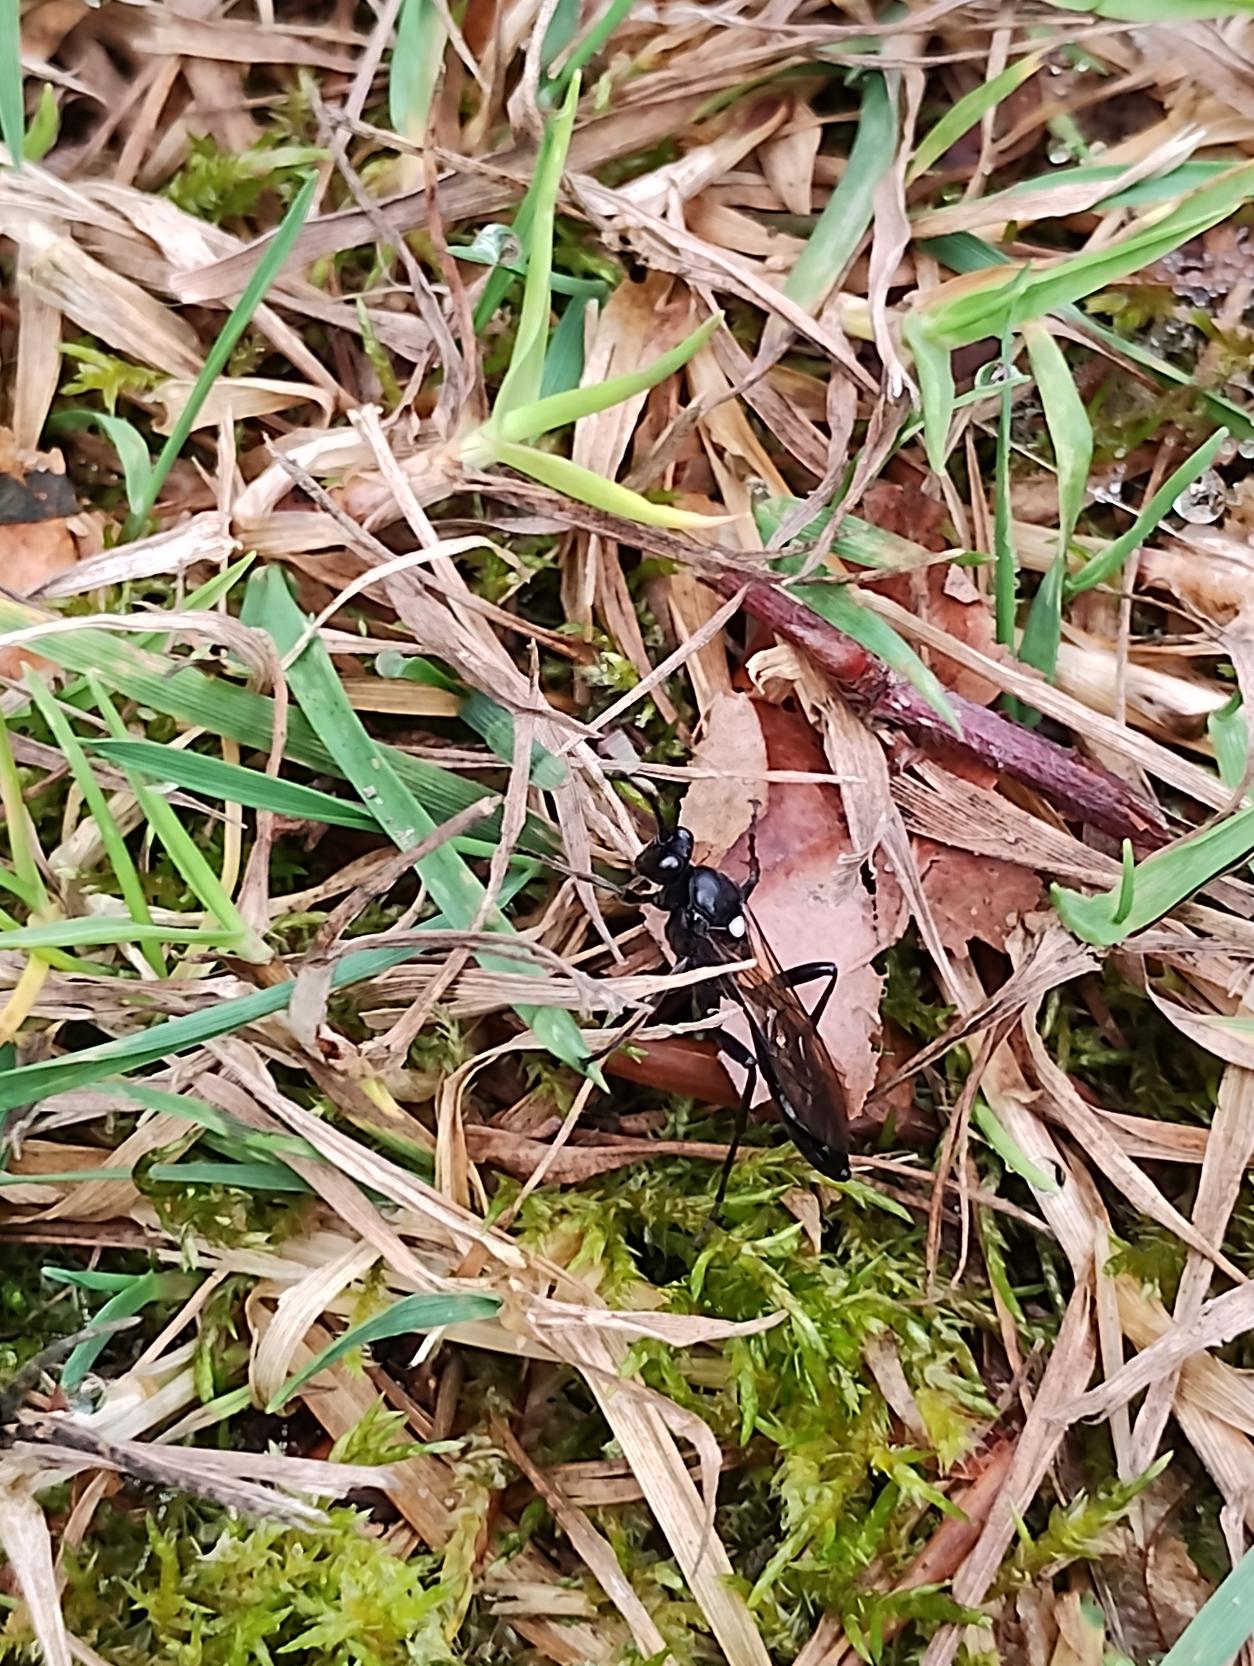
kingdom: Animalia
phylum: Arthropoda
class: Insecta
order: Hymenoptera
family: Ichneumonidae
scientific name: Ichneumonidae
